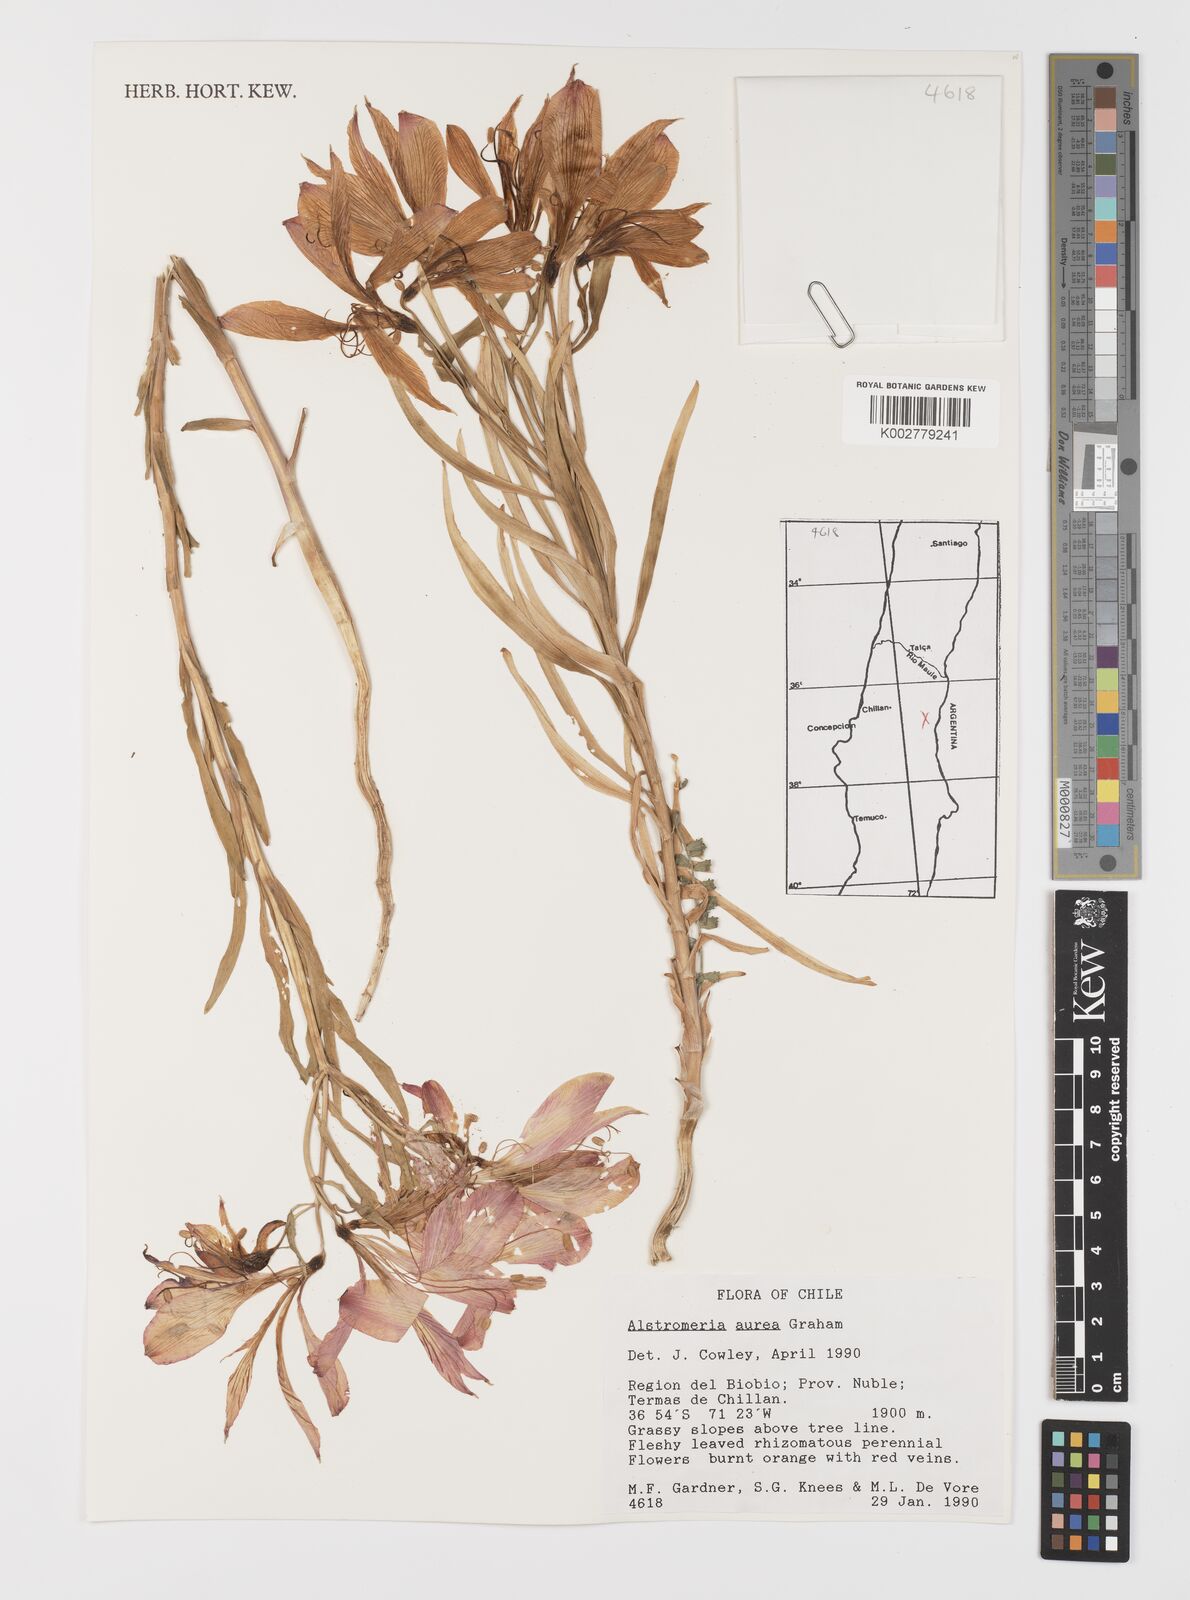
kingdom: Plantae
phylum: Tracheophyta
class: Liliopsida
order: Liliales
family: Alstroemeriaceae
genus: Alstroemeria
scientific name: Alstroemeria aurea
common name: Peruvian lily
